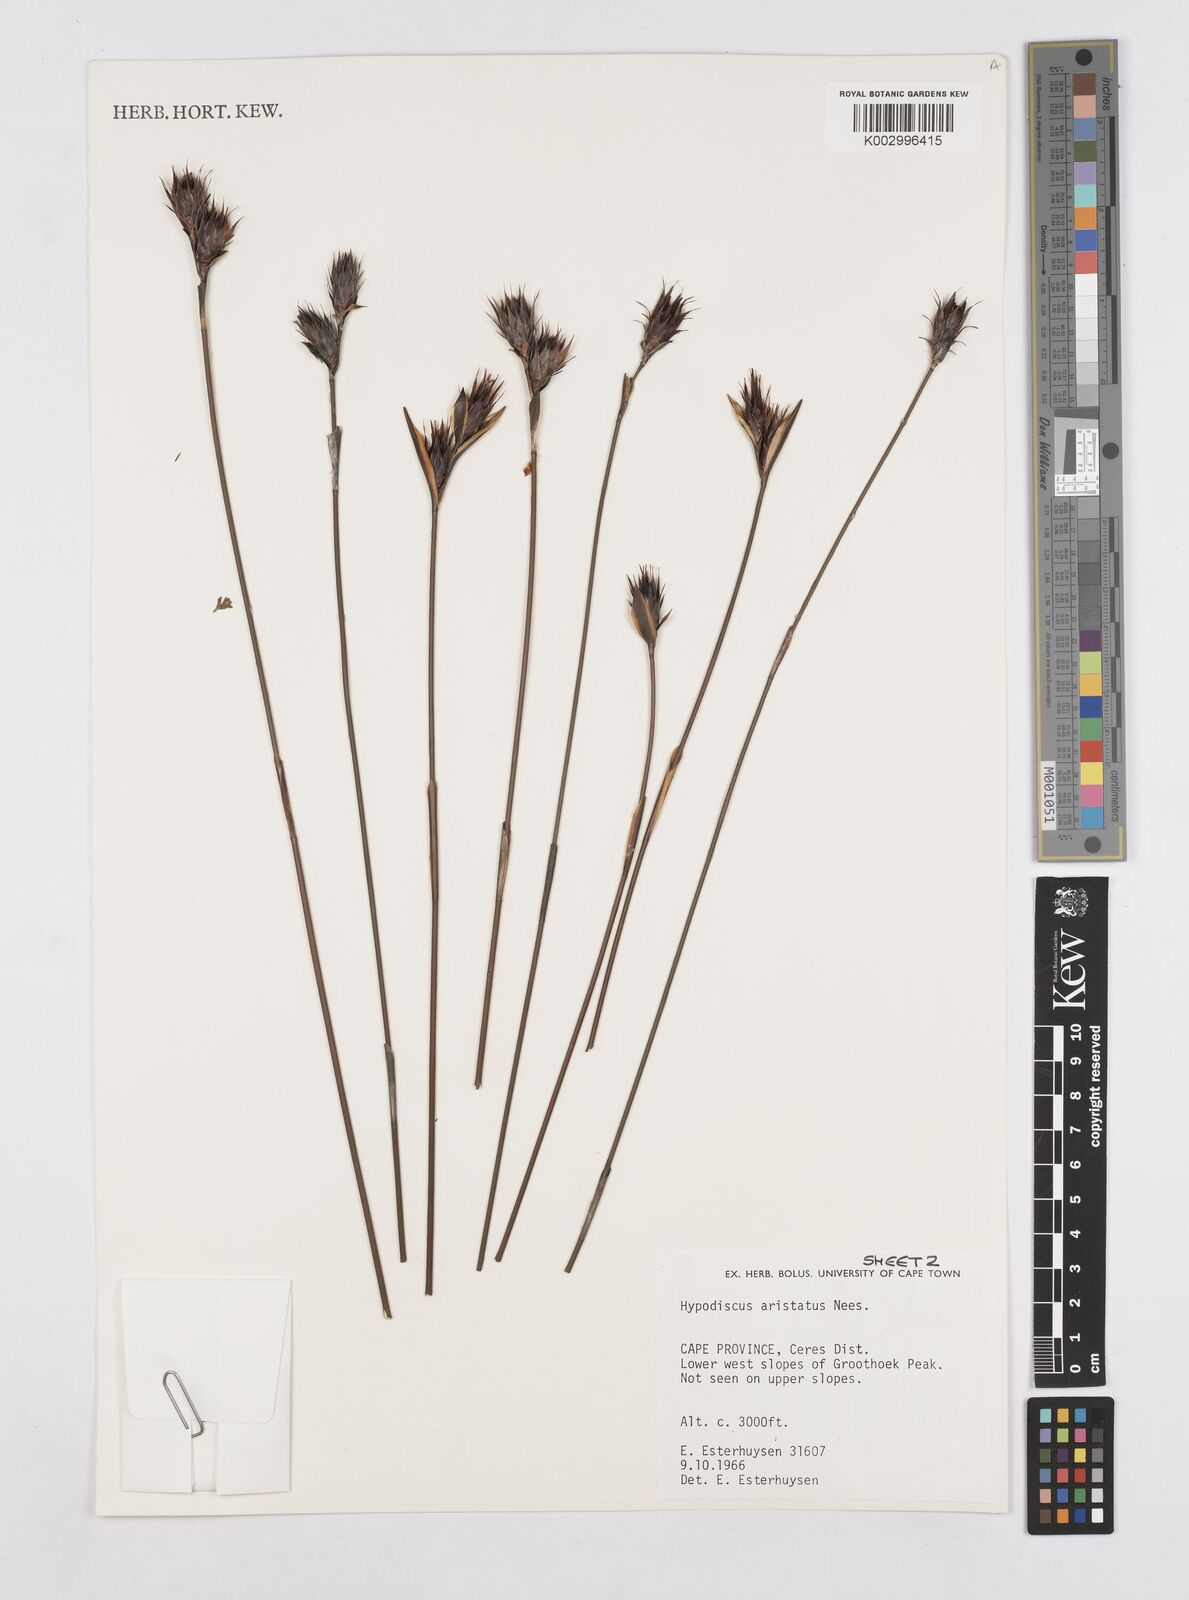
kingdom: Plantae
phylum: Tracheophyta
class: Liliopsida
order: Poales
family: Restionaceae
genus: Hypodiscus
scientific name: Hypodiscus aristatus
